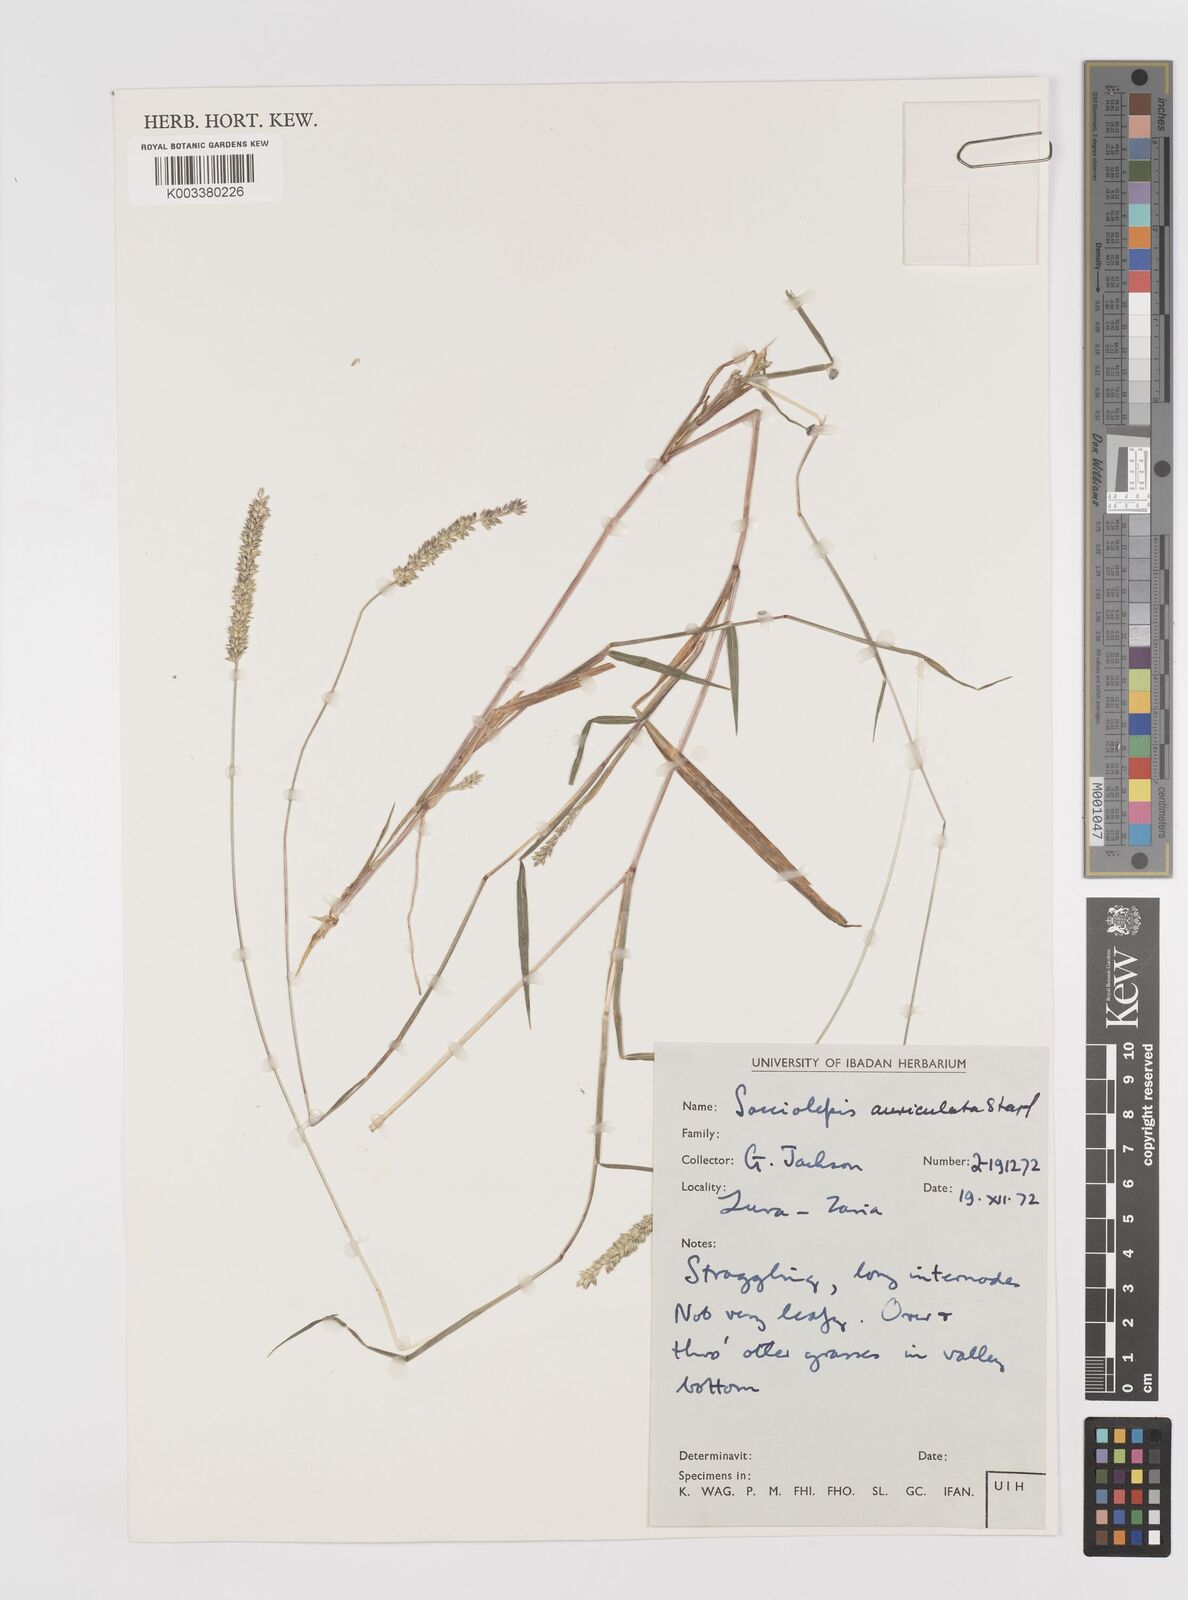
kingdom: Plantae
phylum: Tracheophyta
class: Liliopsida
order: Poales
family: Poaceae
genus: Sacciolepis
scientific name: Sacciolepis indica
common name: Glenwoodgrass
